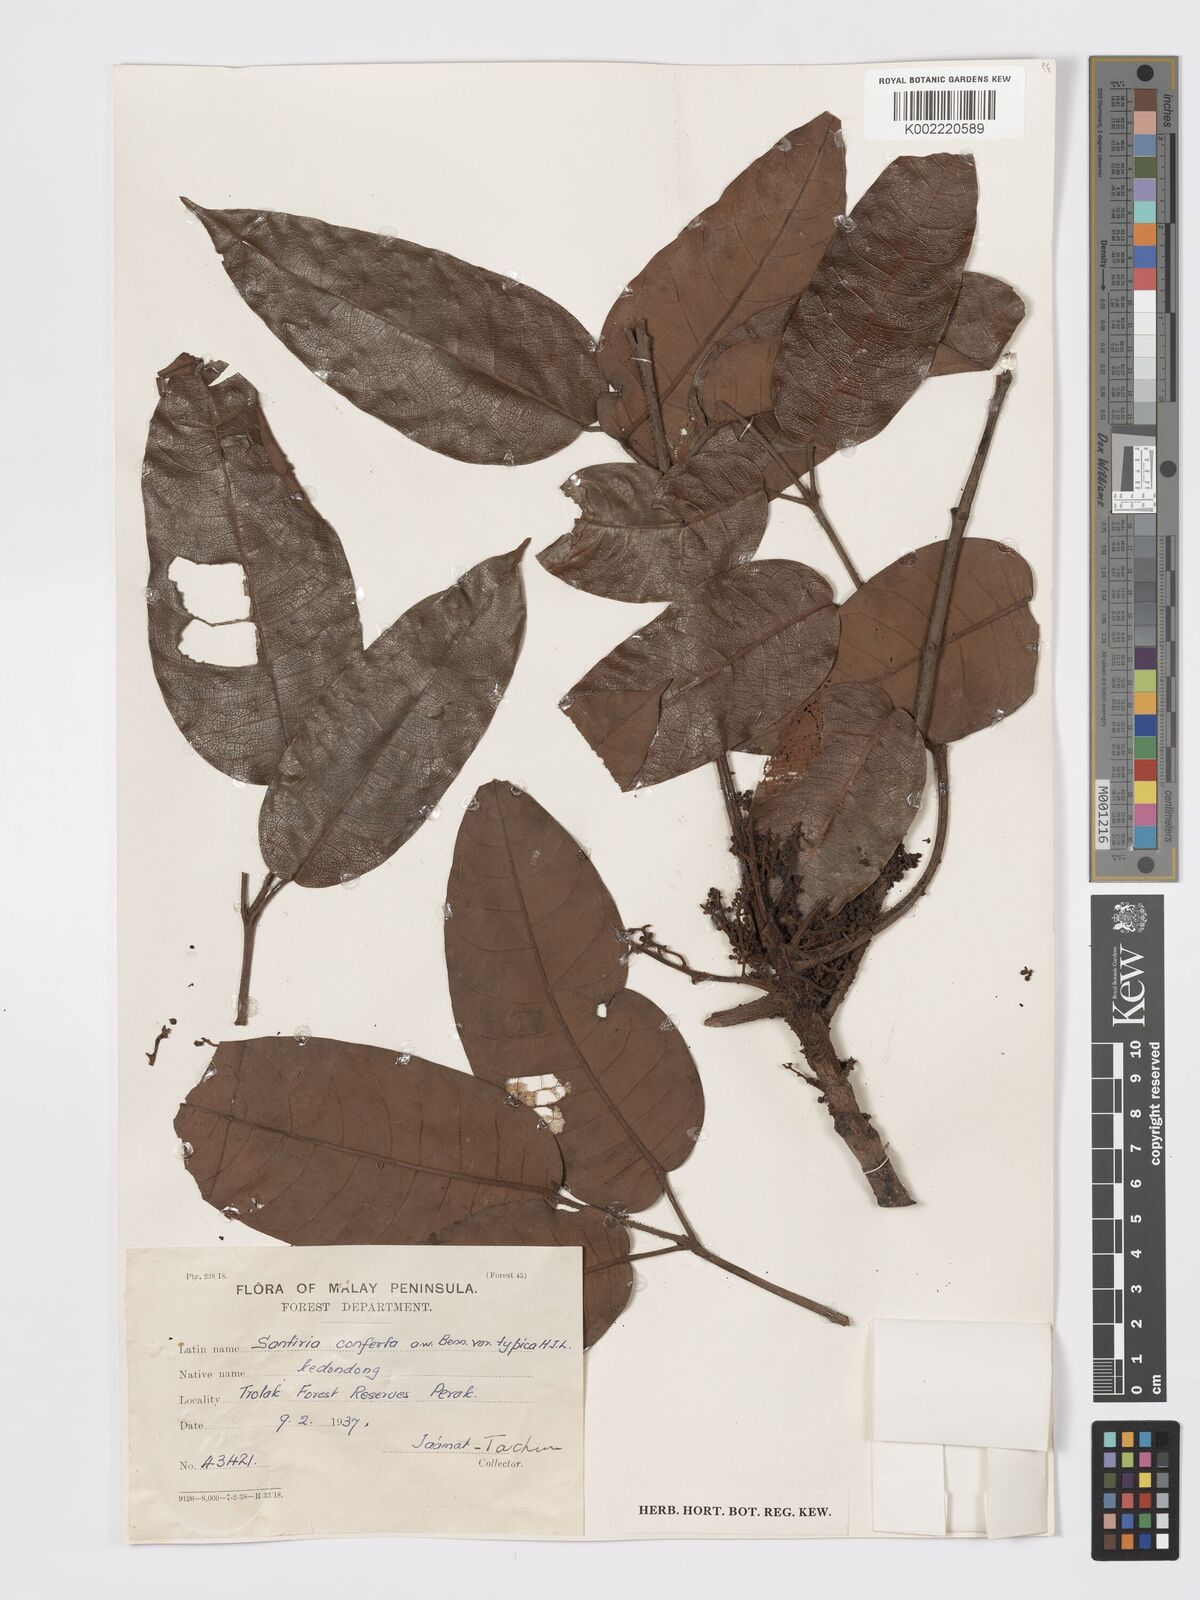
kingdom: Plantae
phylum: Tracheophyta
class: Magnoliopsida
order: Sapindales
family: Burseraceae
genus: Santiria
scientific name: Santiria conferta
